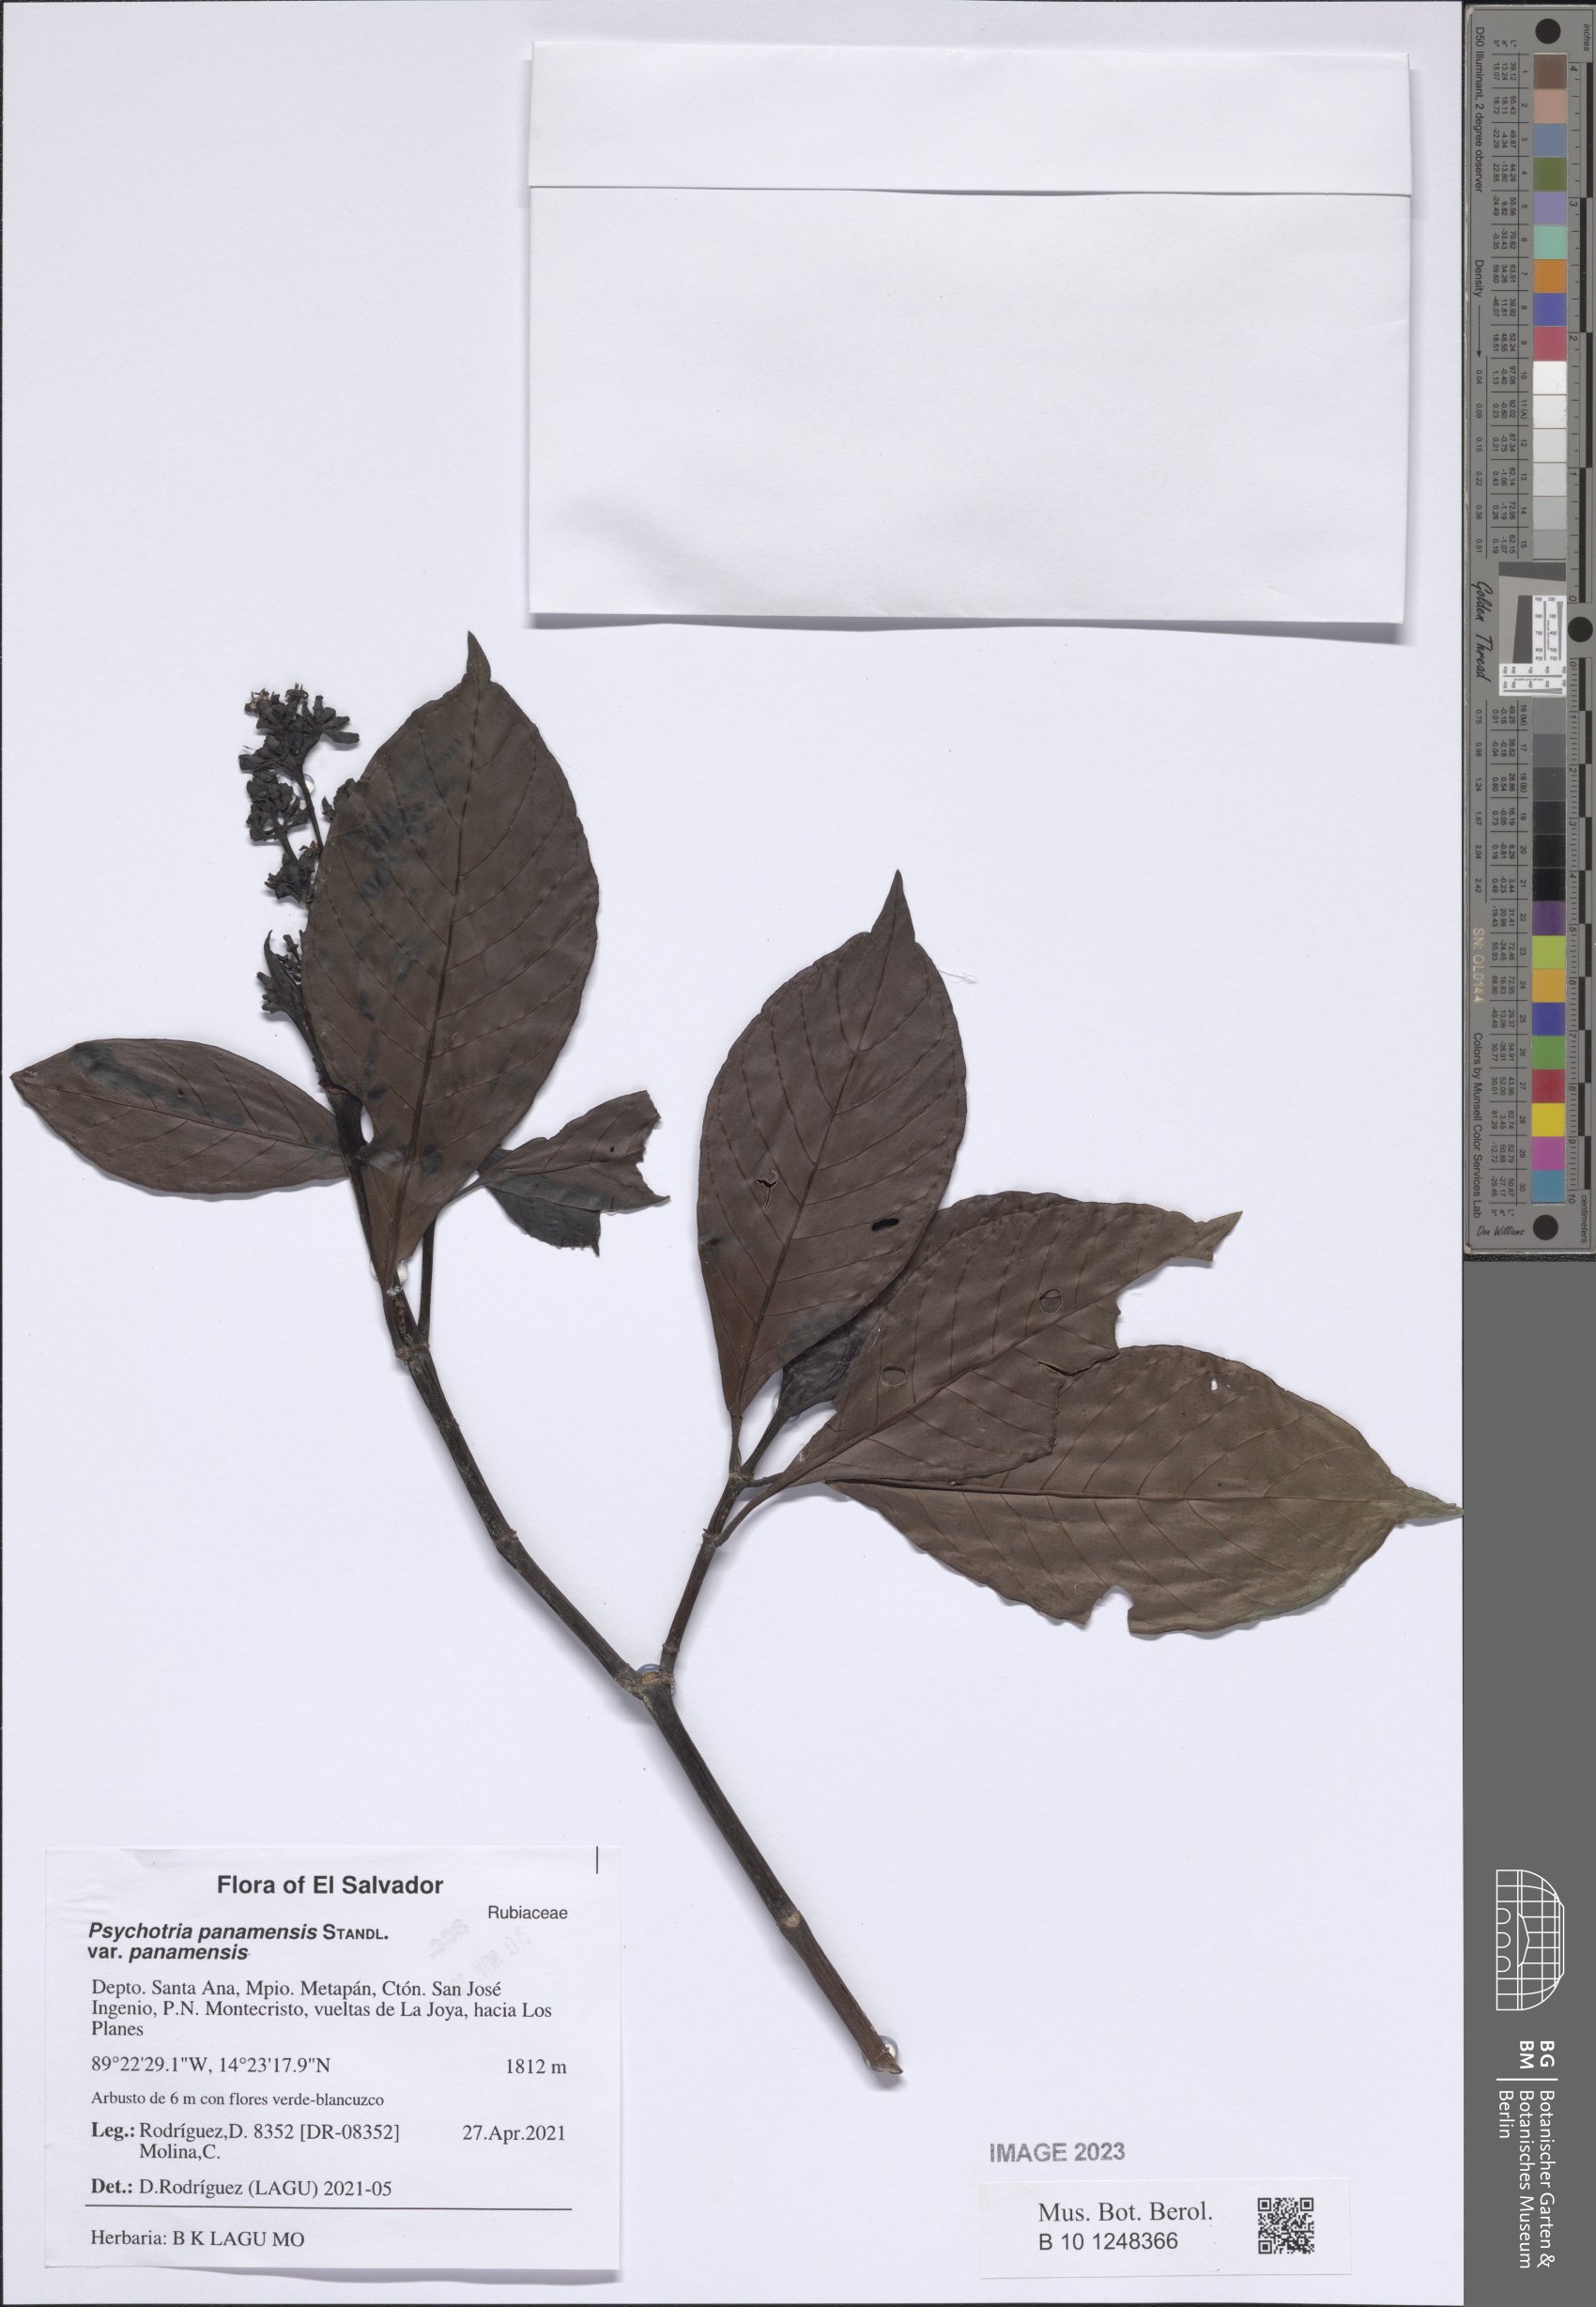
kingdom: Plantae
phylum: Tracheophyta
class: Magnoliopsida
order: Gentianales
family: Rubiaceae
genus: Psychotria
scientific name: Psychotria panamensis
